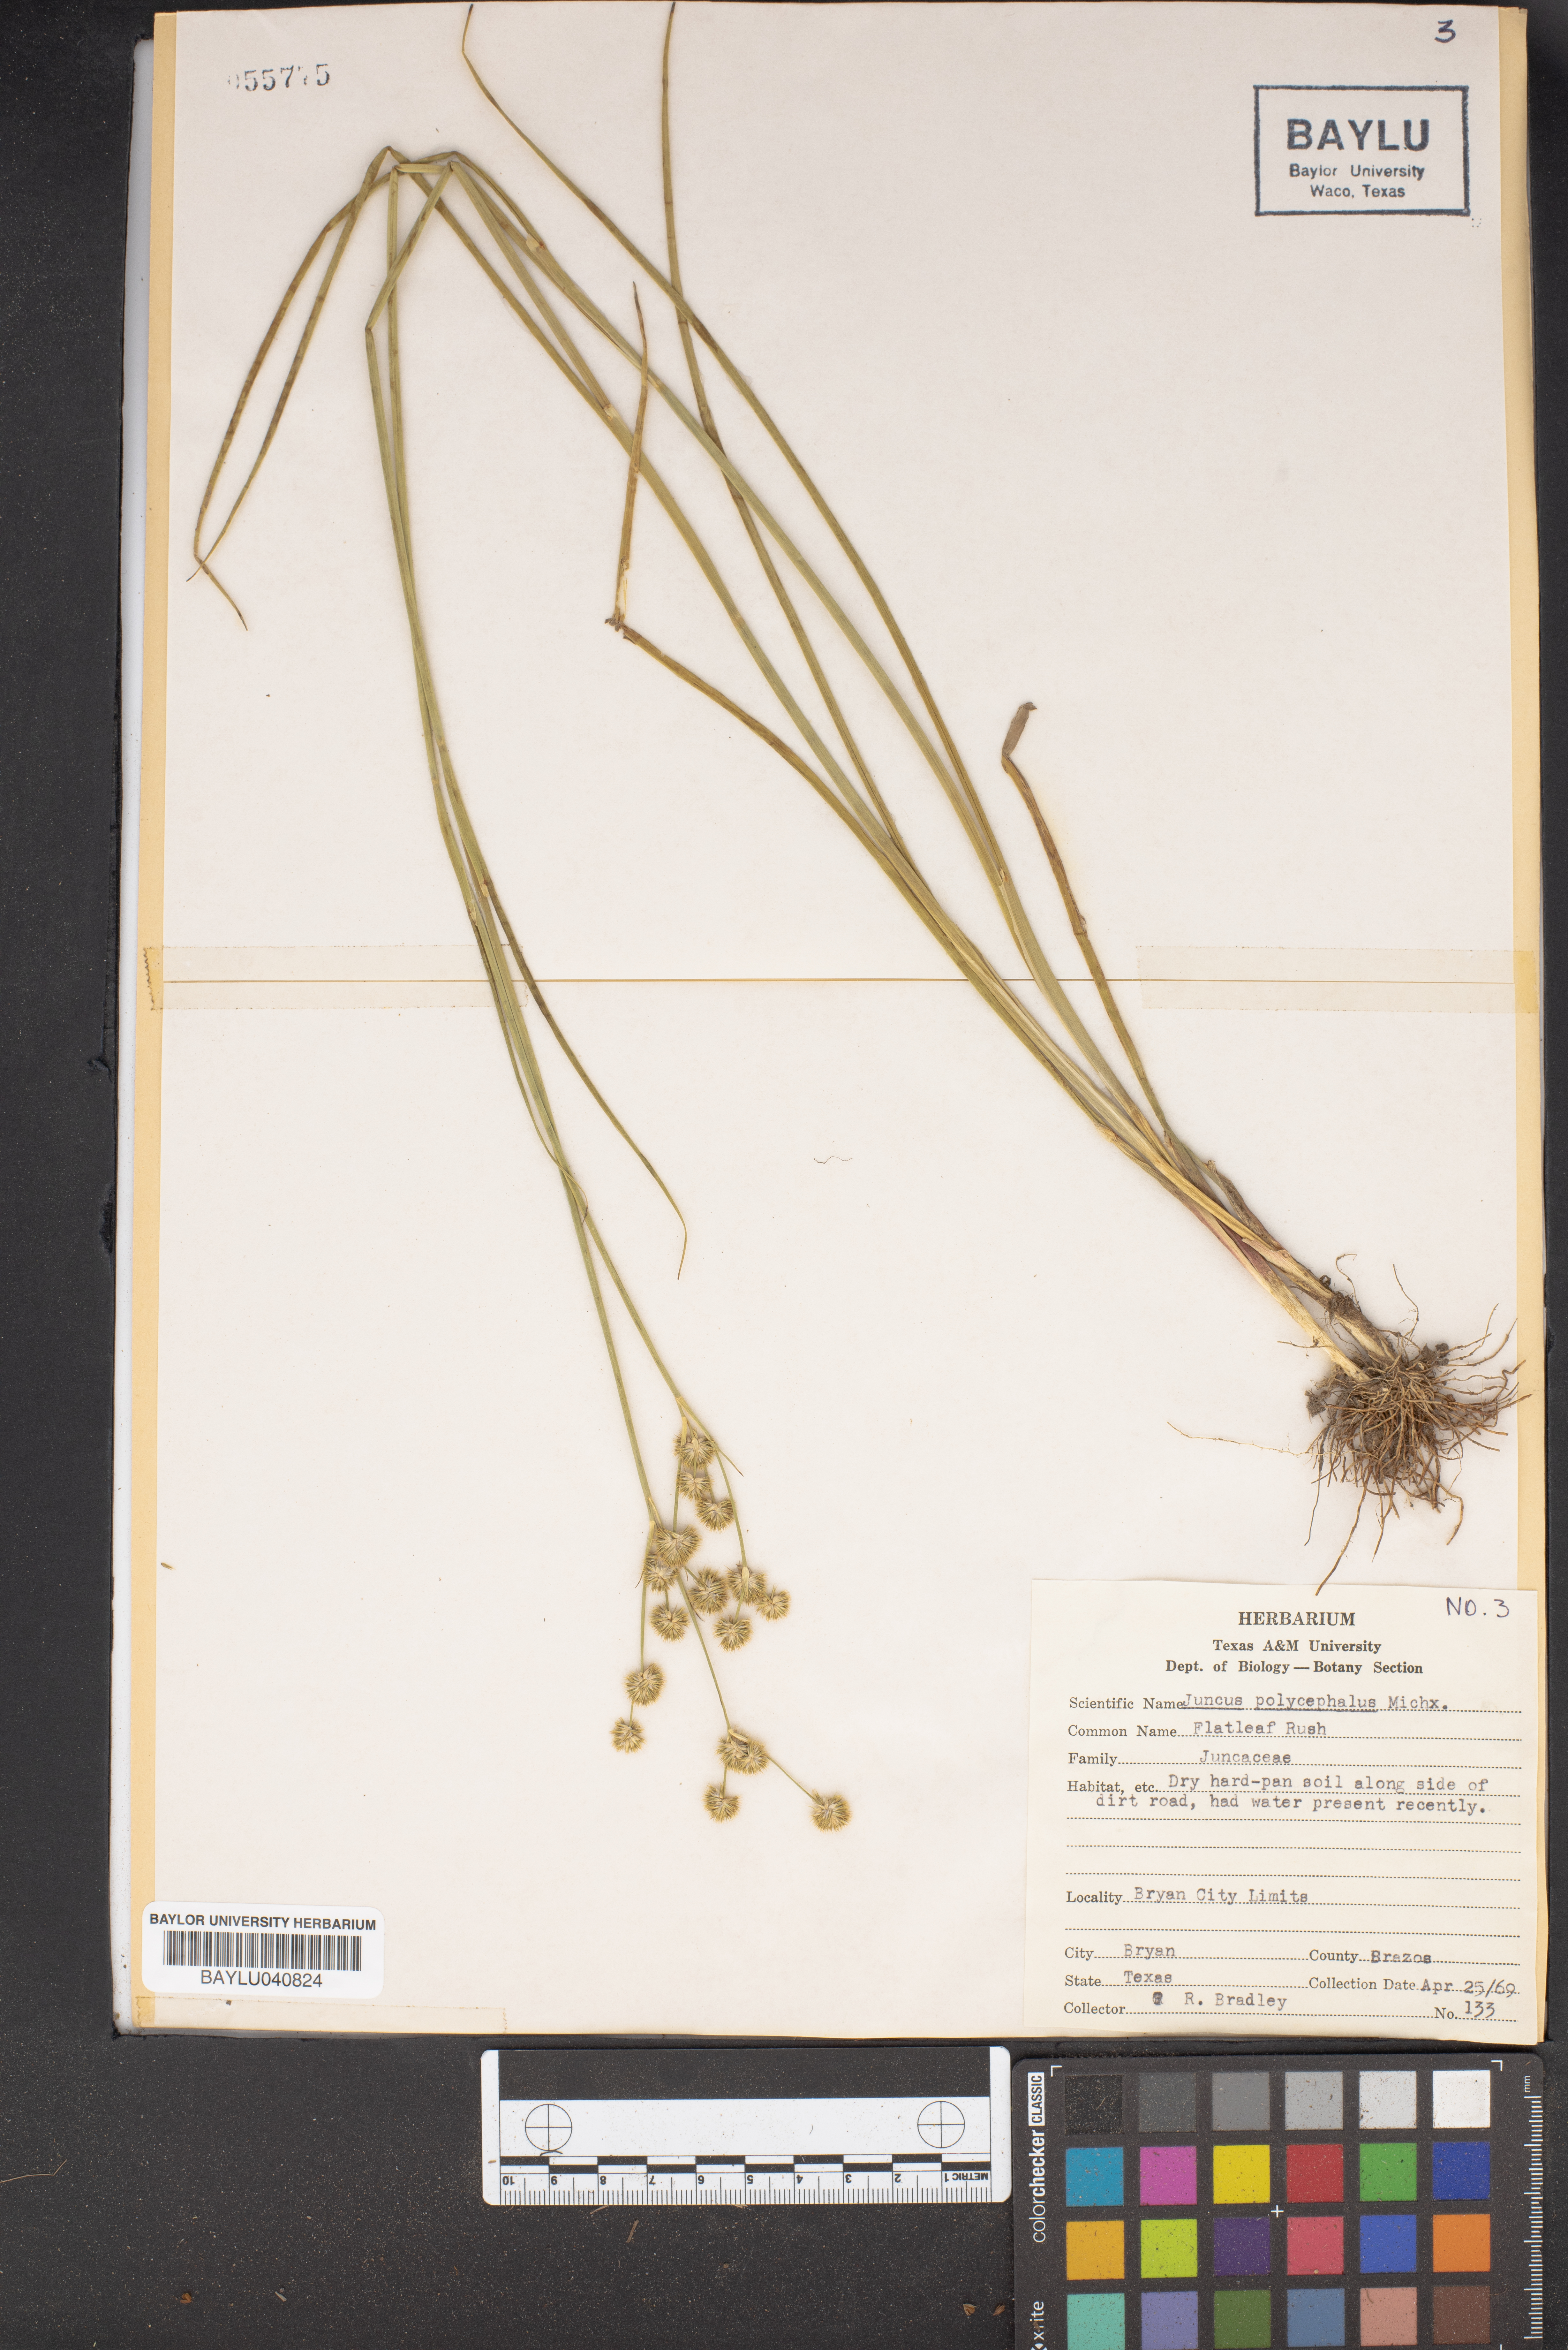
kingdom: Plantae
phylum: Tracheophyta
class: Liliopsida
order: Poales
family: Juncaceae
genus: Juncus
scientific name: Juncus polycephalus
